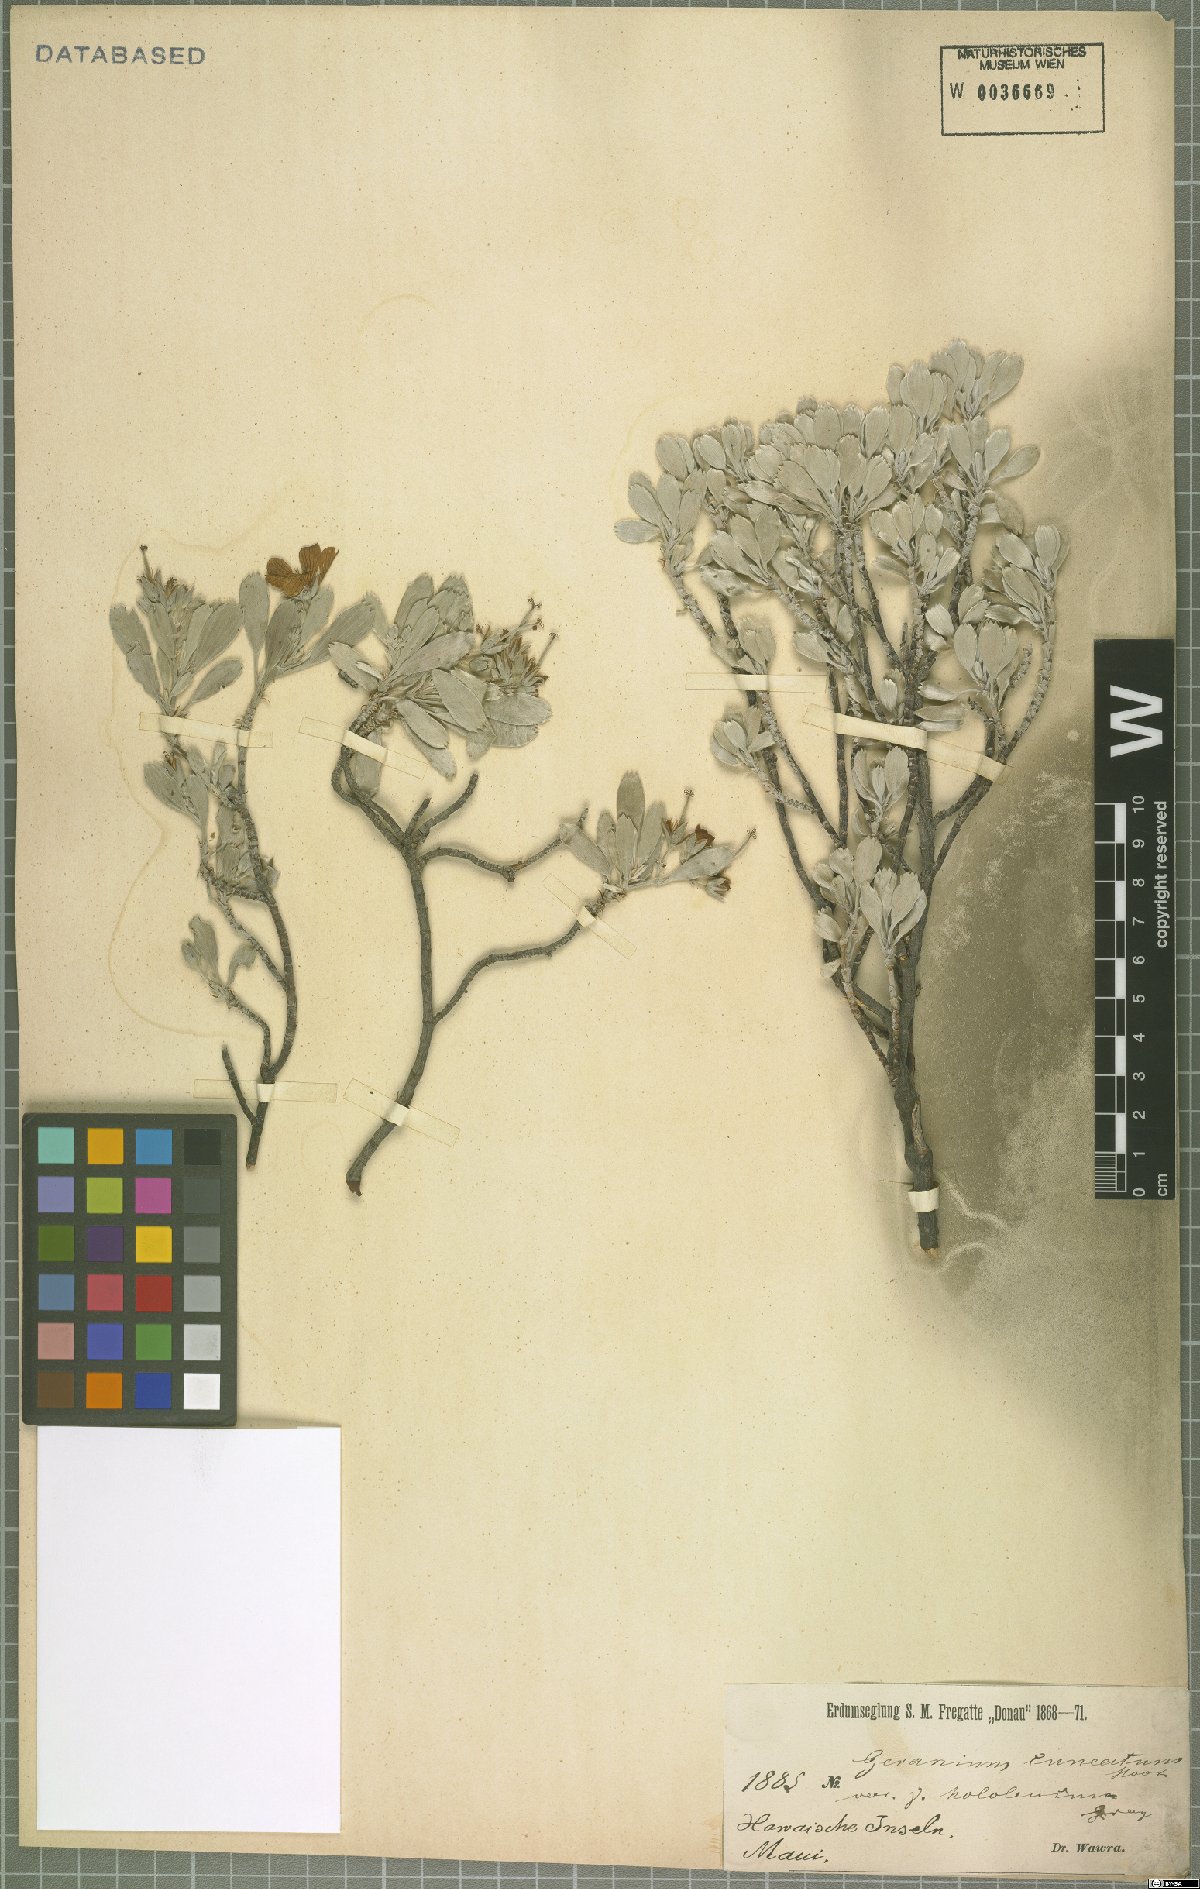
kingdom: Plantae
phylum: Tracheophyta
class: Magnoliopsida
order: Geraniales
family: Geraniaceae
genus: Geranium
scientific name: Geranium cuneatum
